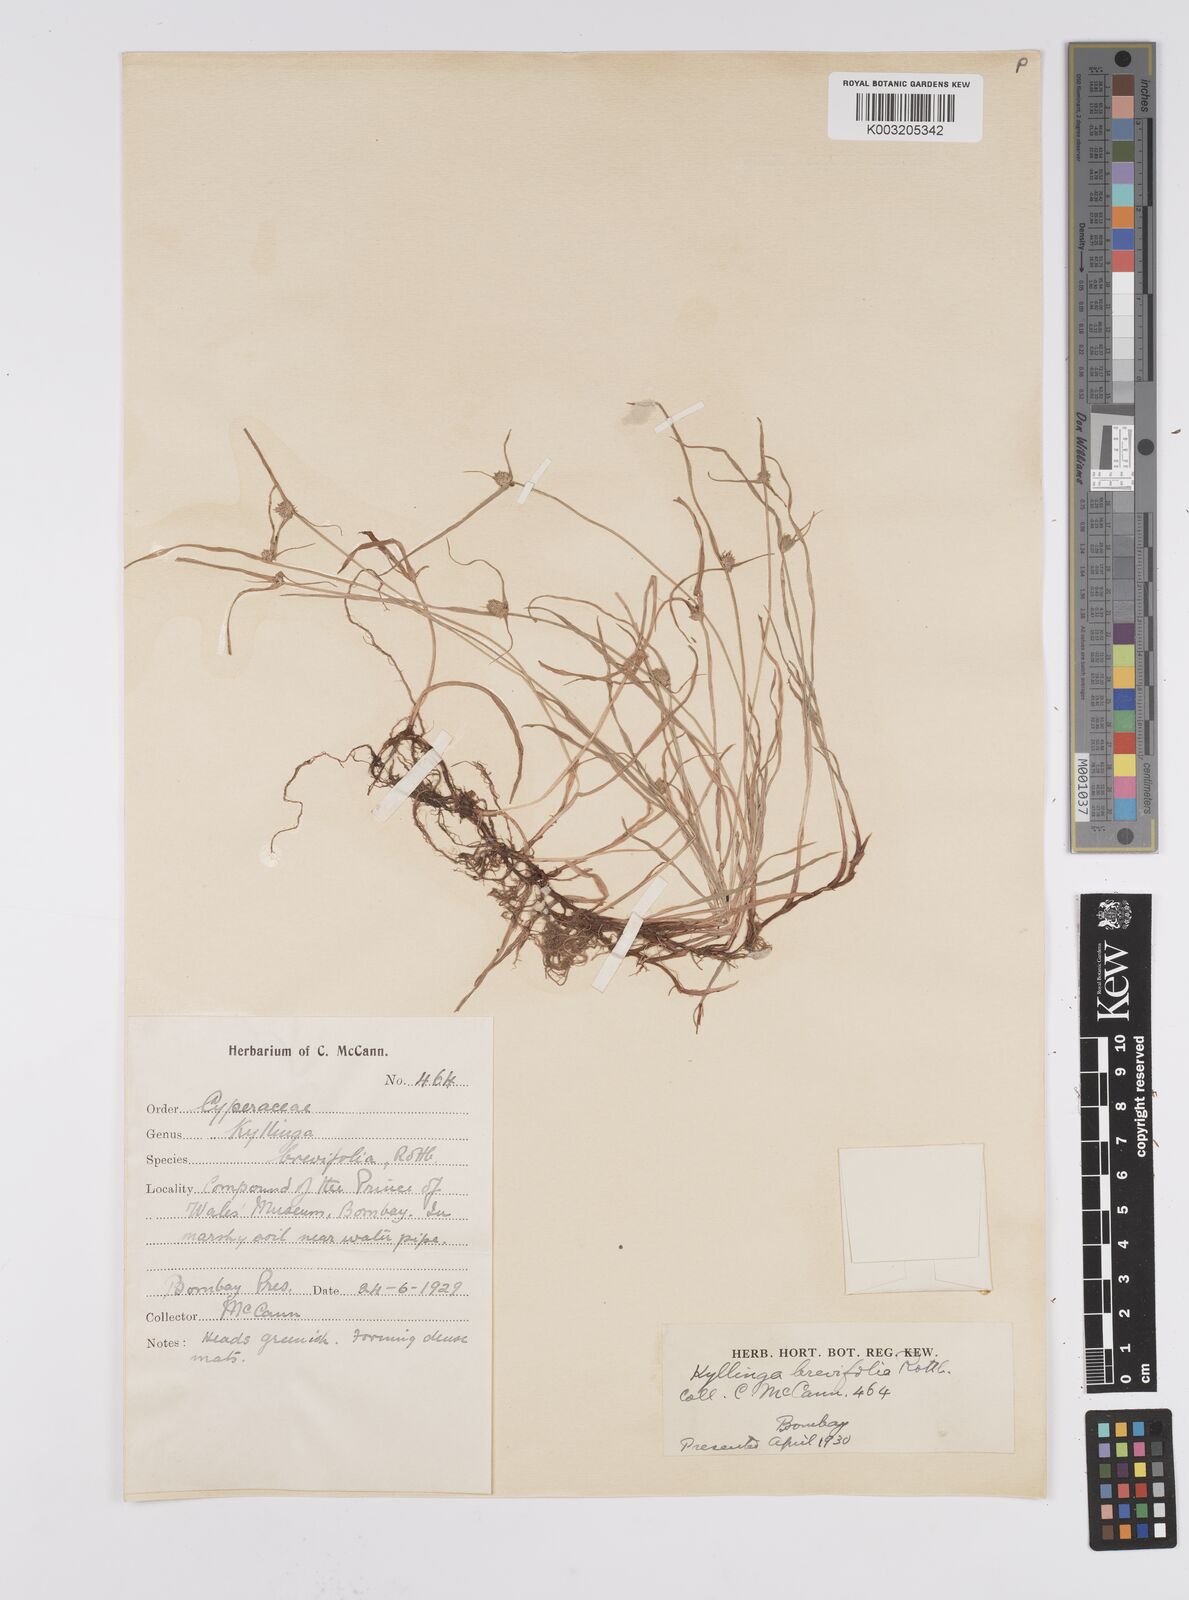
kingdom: Plantae
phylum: Tracheophyta
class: Liliopsida
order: Poales
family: Cyperaceae
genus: Cyperus
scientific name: Cyperus brevifolius
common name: Globe kyllinga
